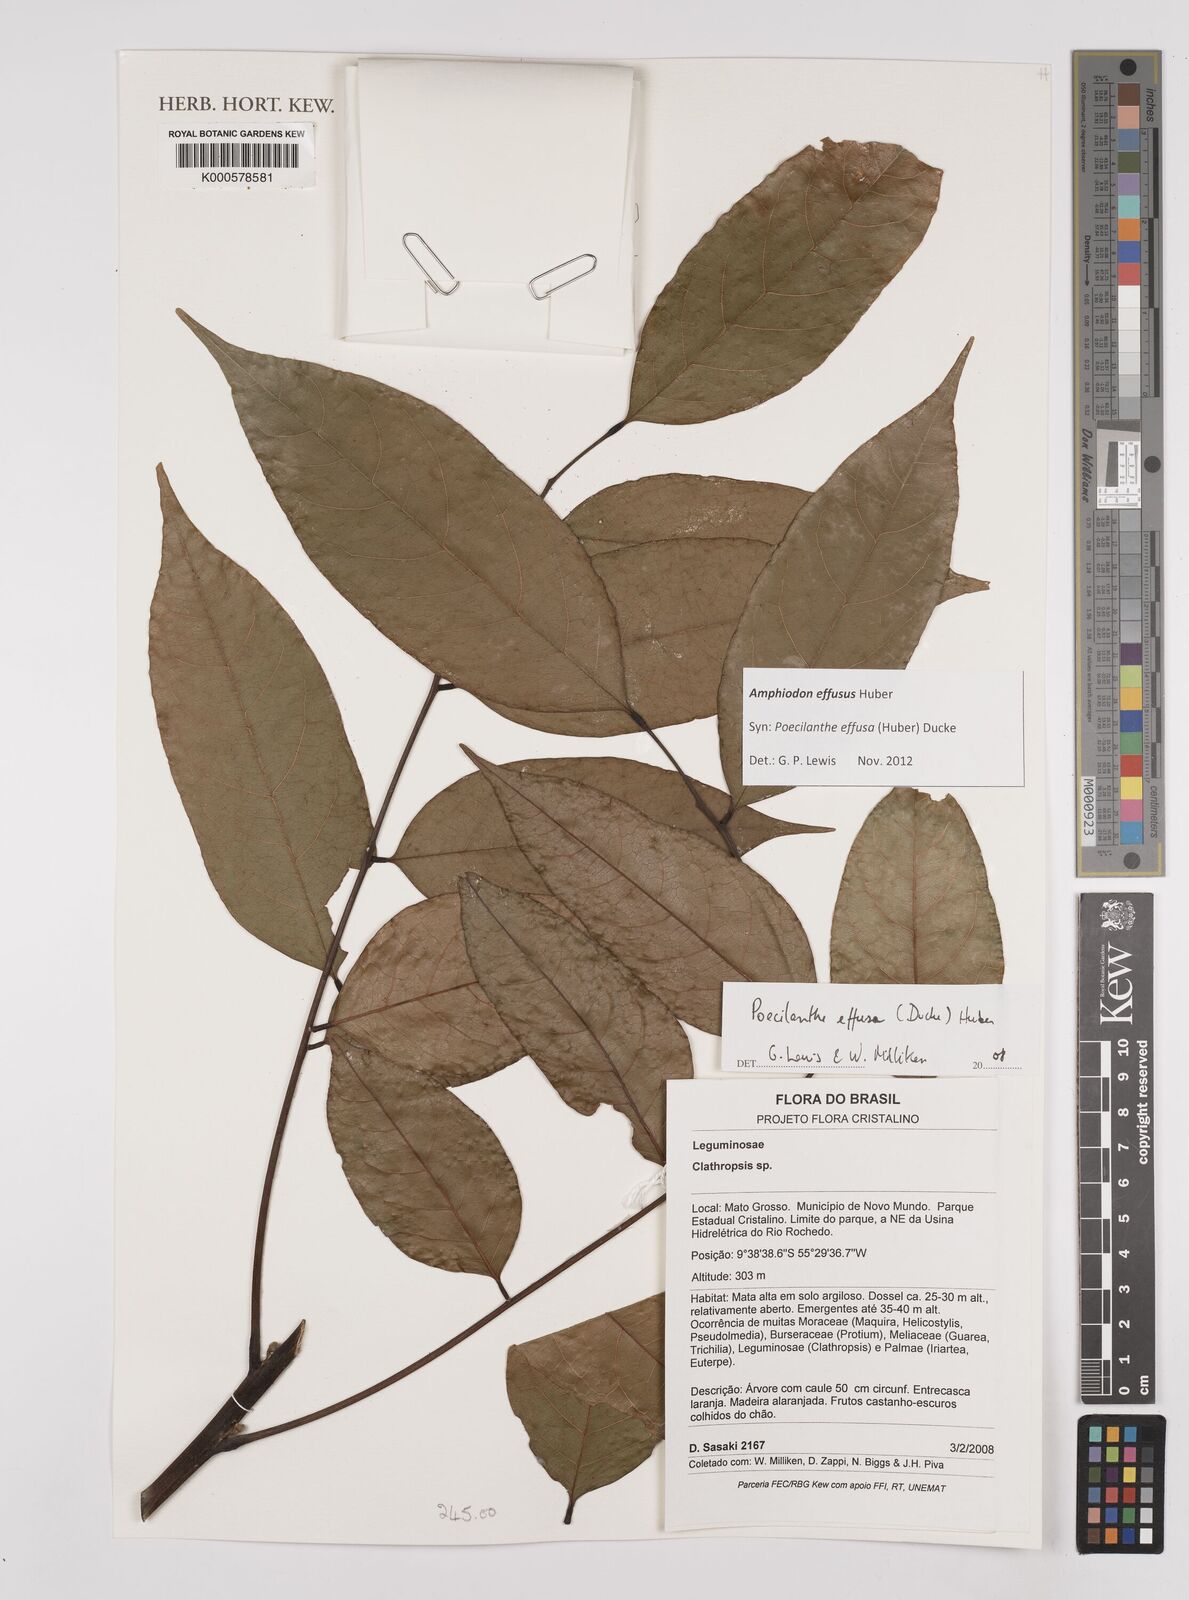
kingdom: Plantae
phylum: Tracheophyta
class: Magnoliopsida
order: Fabales
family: Fabaceae
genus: Amphiodon
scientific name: Amphiodon effusus
